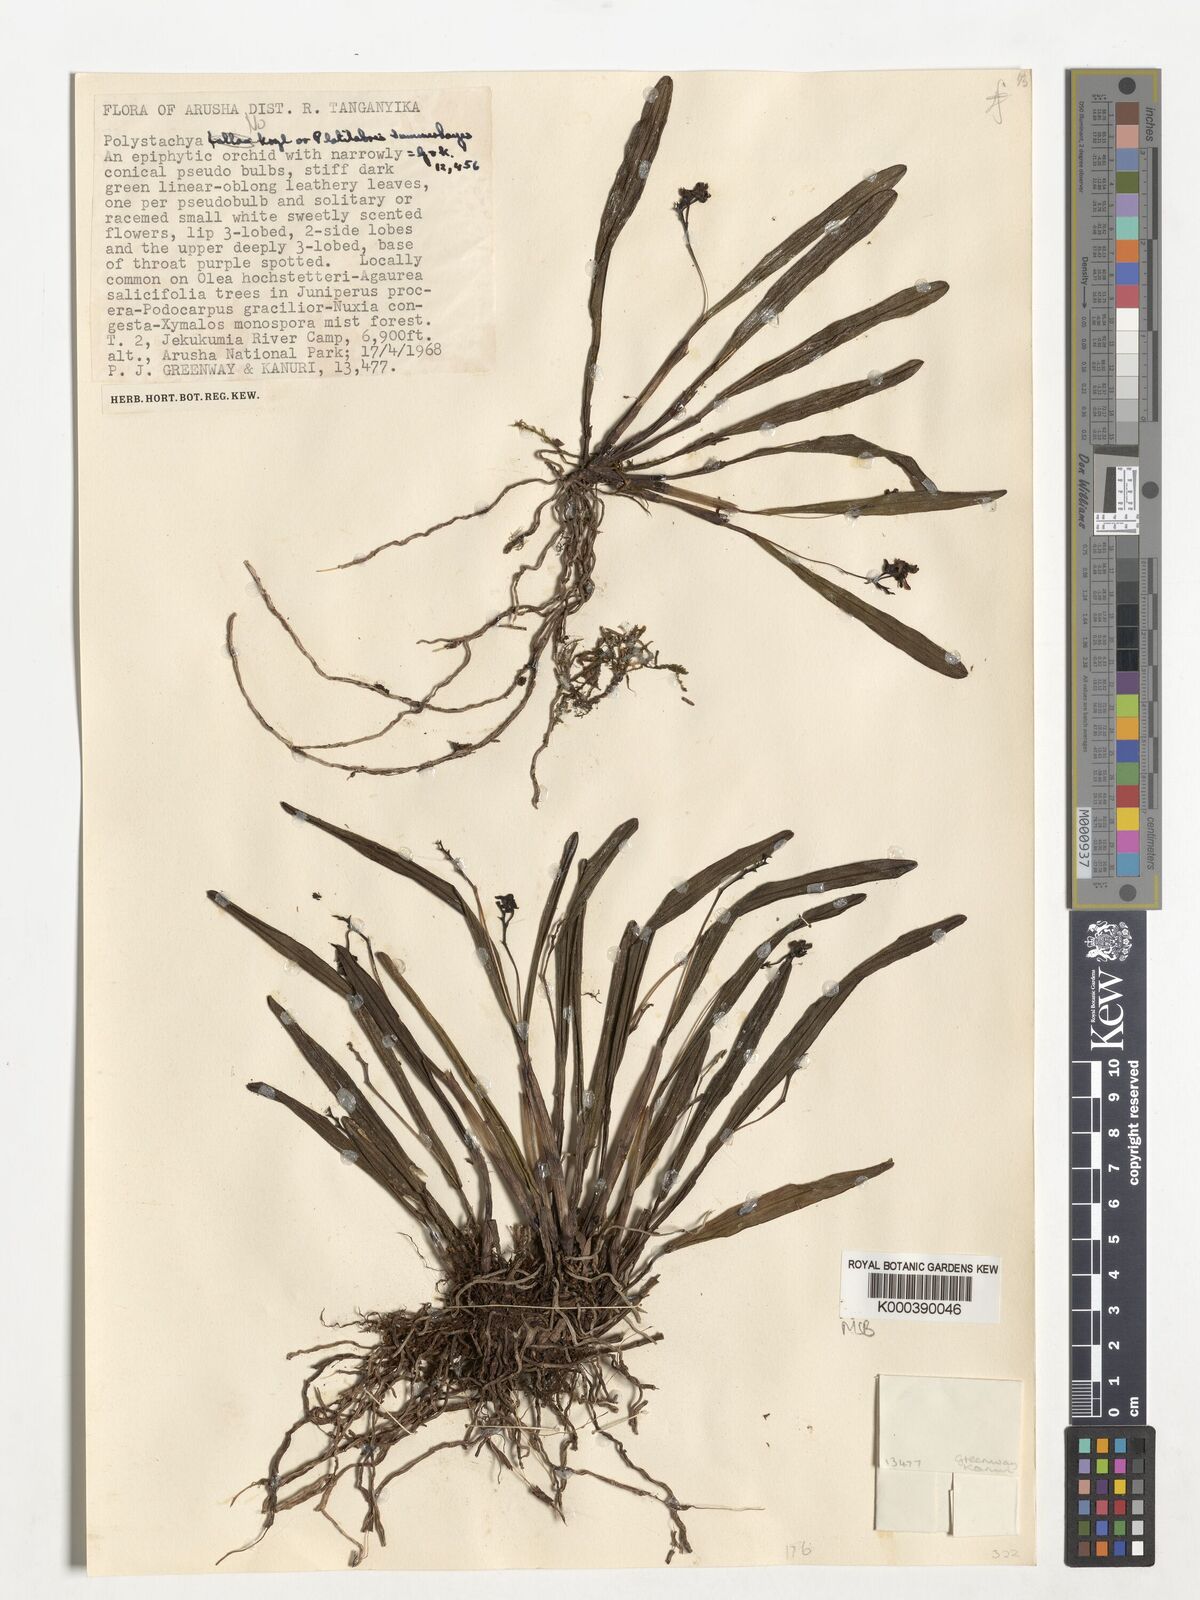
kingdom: Plantae
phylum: Tracheophyta
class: Liliopsida
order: Asparagales
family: Orchidaceae
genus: Polystachya
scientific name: Polystachya caespitifica
